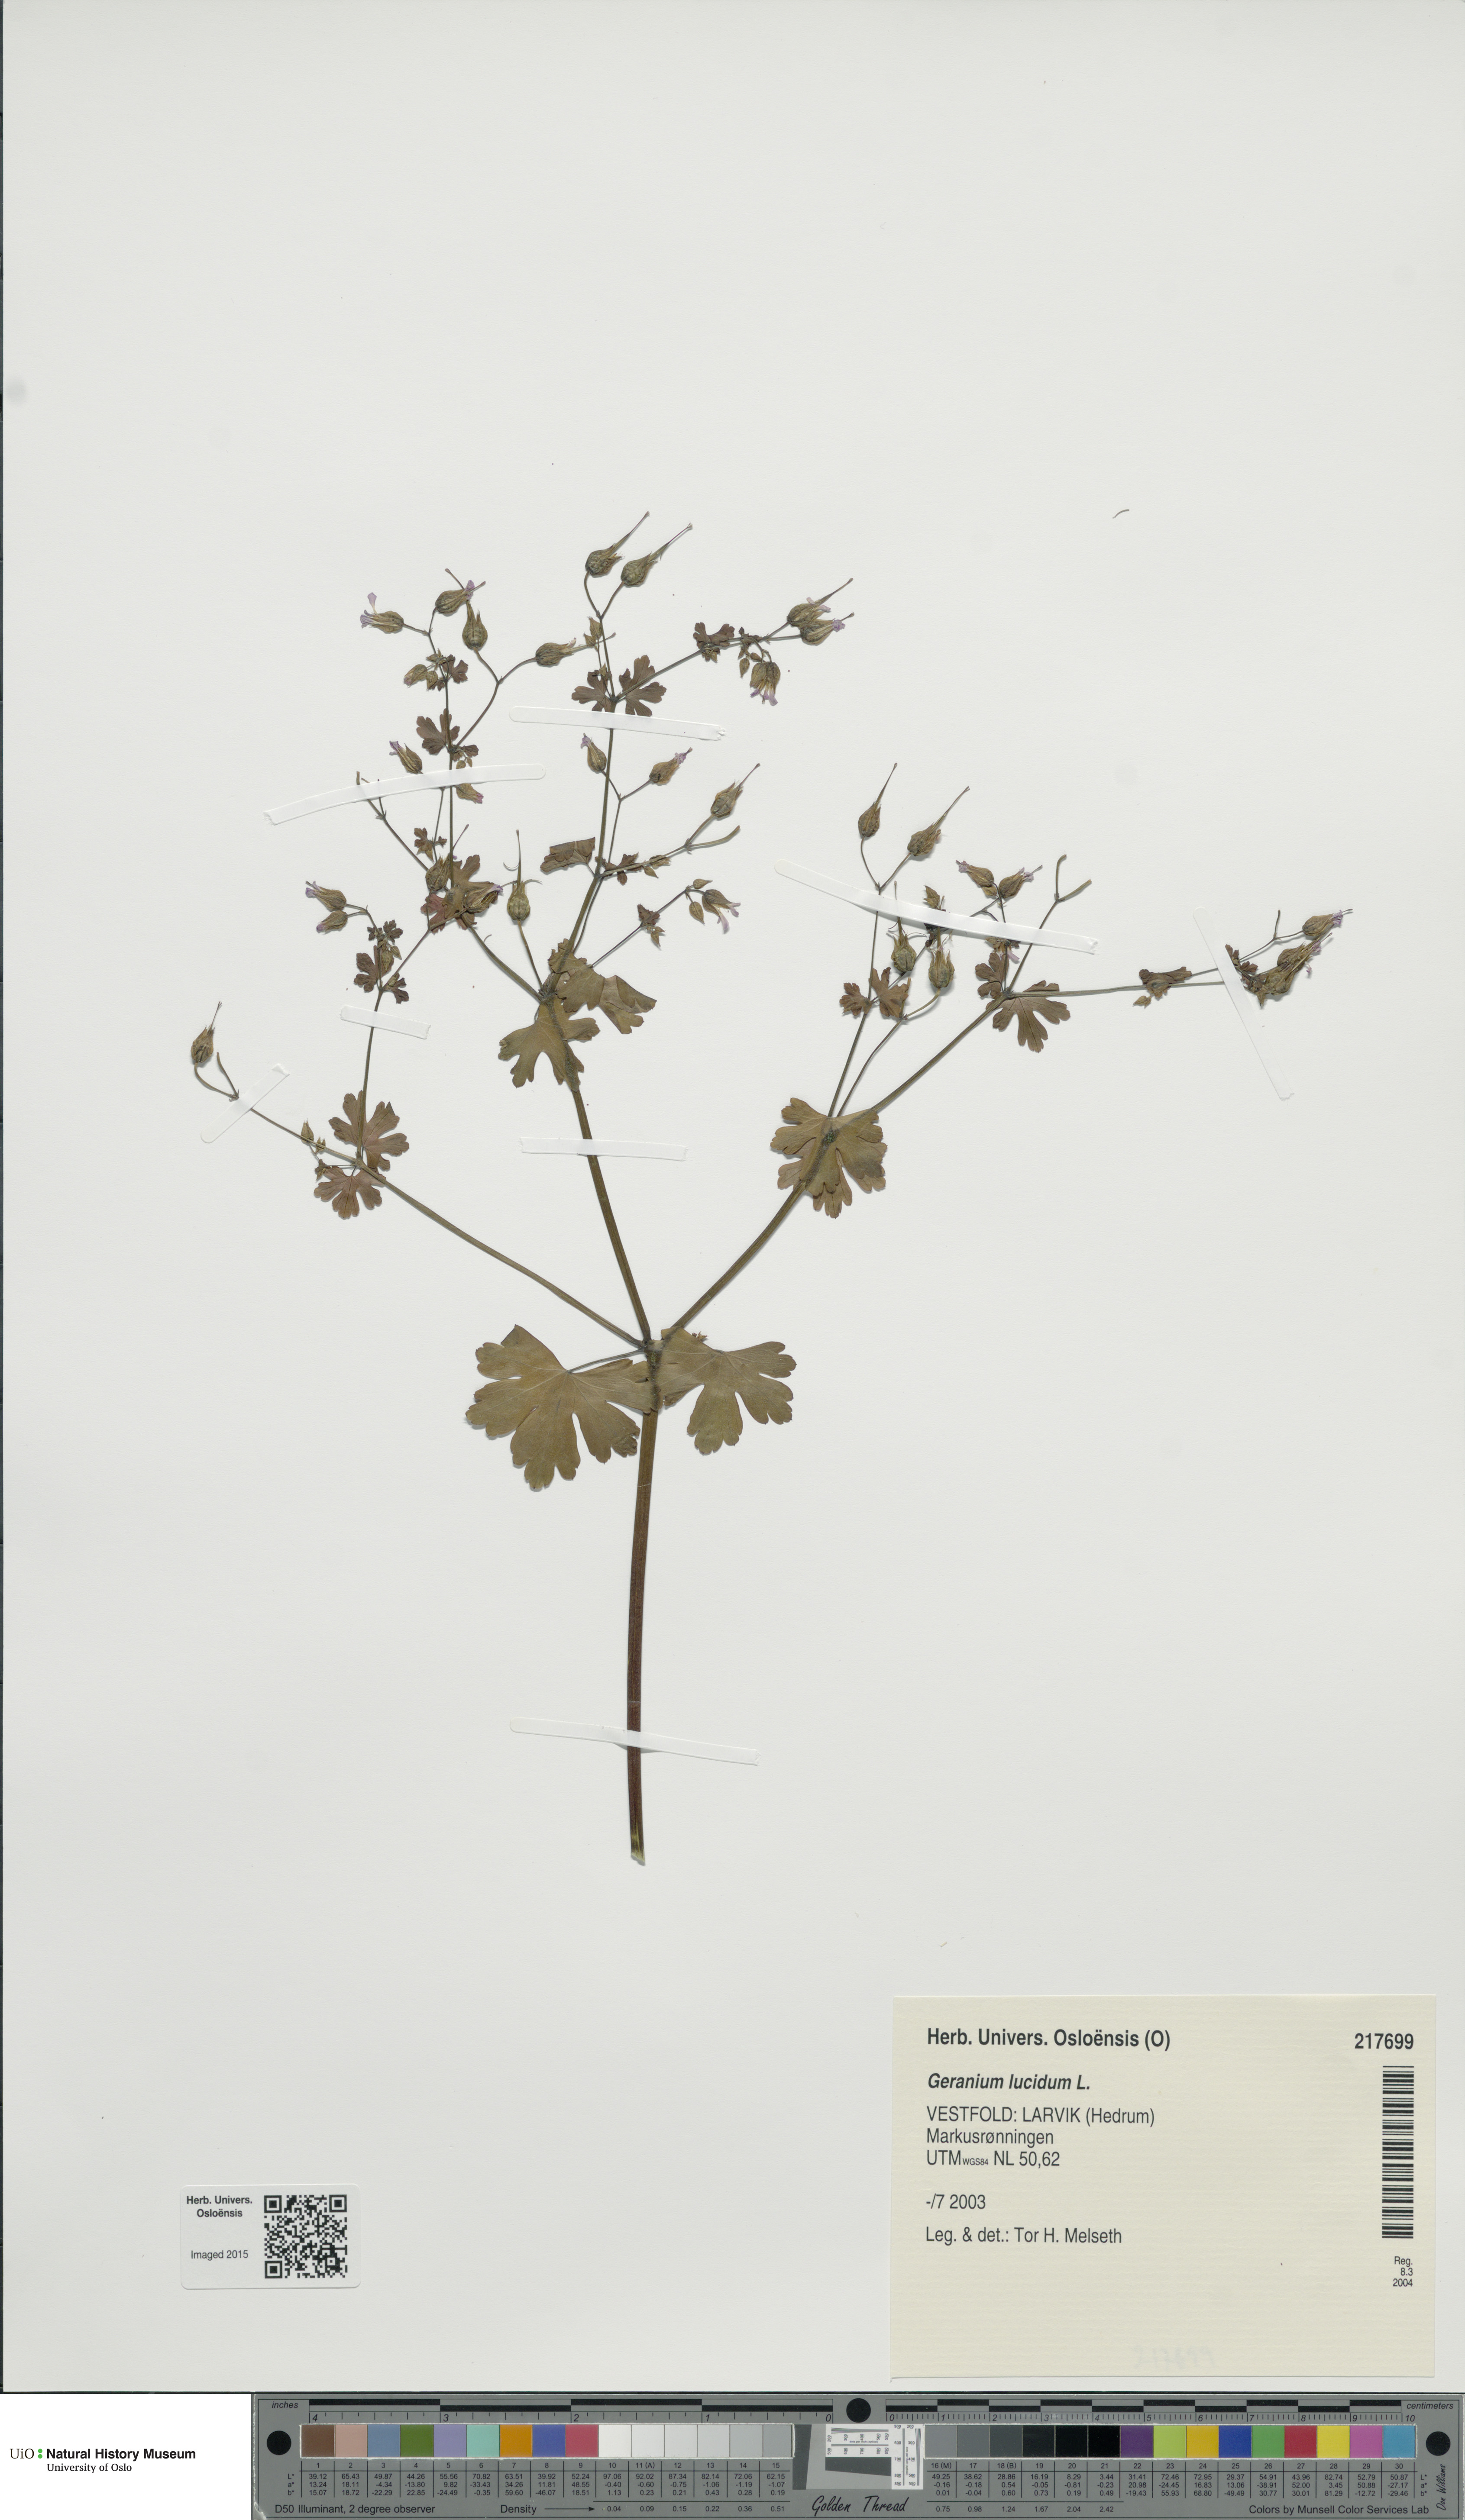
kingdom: Plantae
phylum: Tracheophyta
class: Magnoliopsida
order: Geraniales
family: Geraniaceae
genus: Geranium
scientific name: Geranium lucidum
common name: Shining crane's-bill
